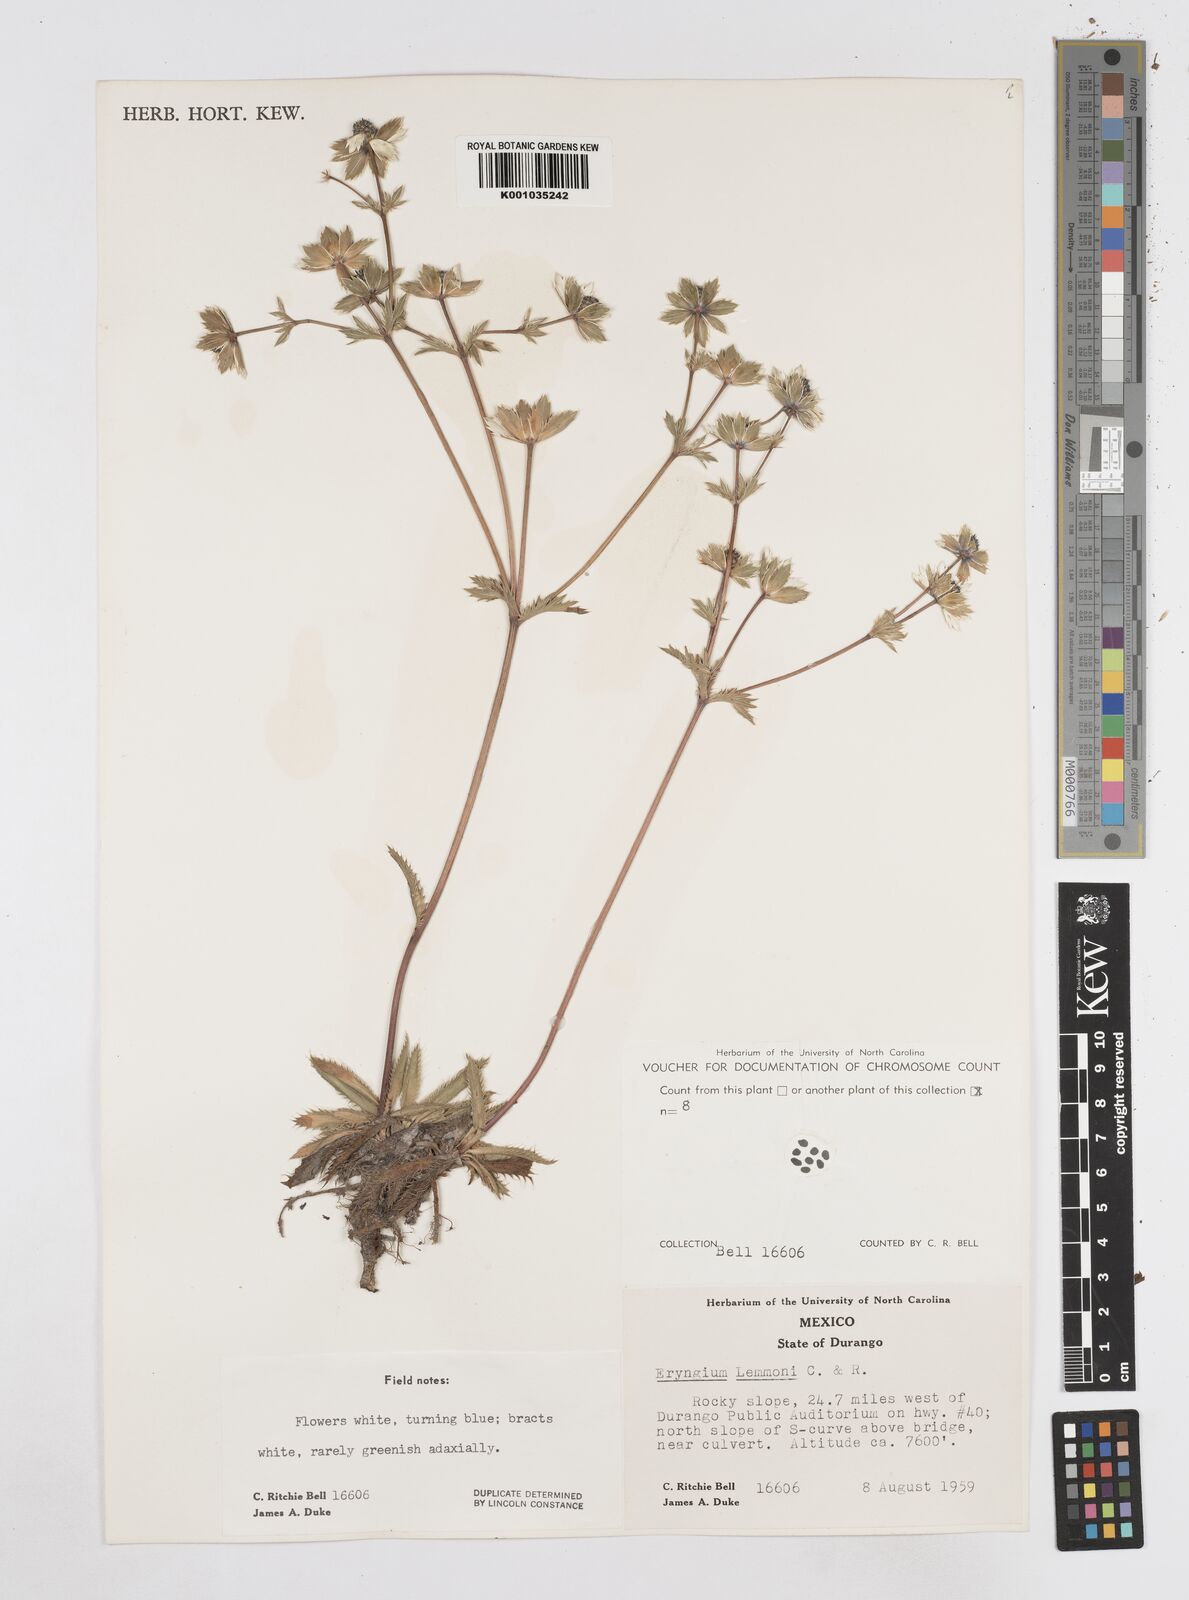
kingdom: Plantae
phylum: Tracheophyta
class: Magnoliopsida
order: Apiales
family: Apiaceae
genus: Eryngium
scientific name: Eryngium lemmonii
